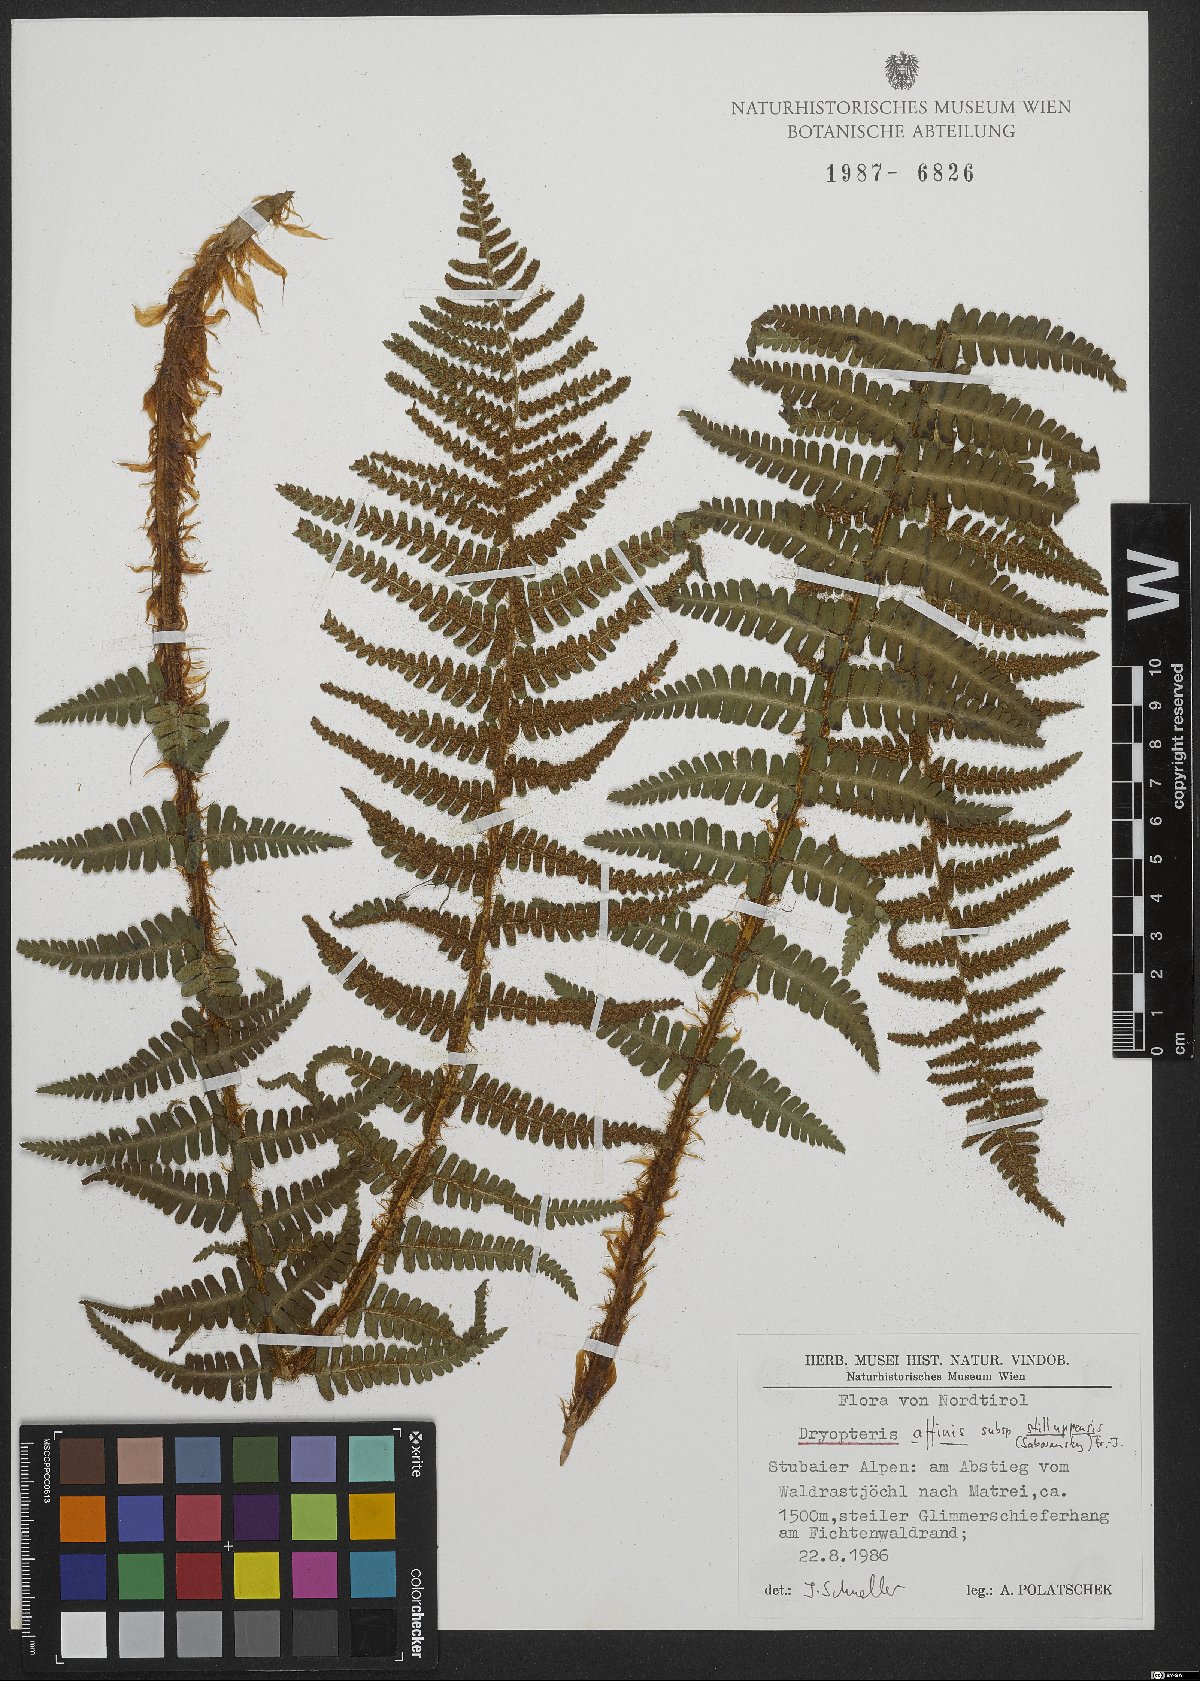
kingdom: Plantae
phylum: Tracheophyta
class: Polypodiopsida
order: Polypodiales
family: Dryopteridaceae
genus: Dryopteris
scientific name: Dryopteris borreri
